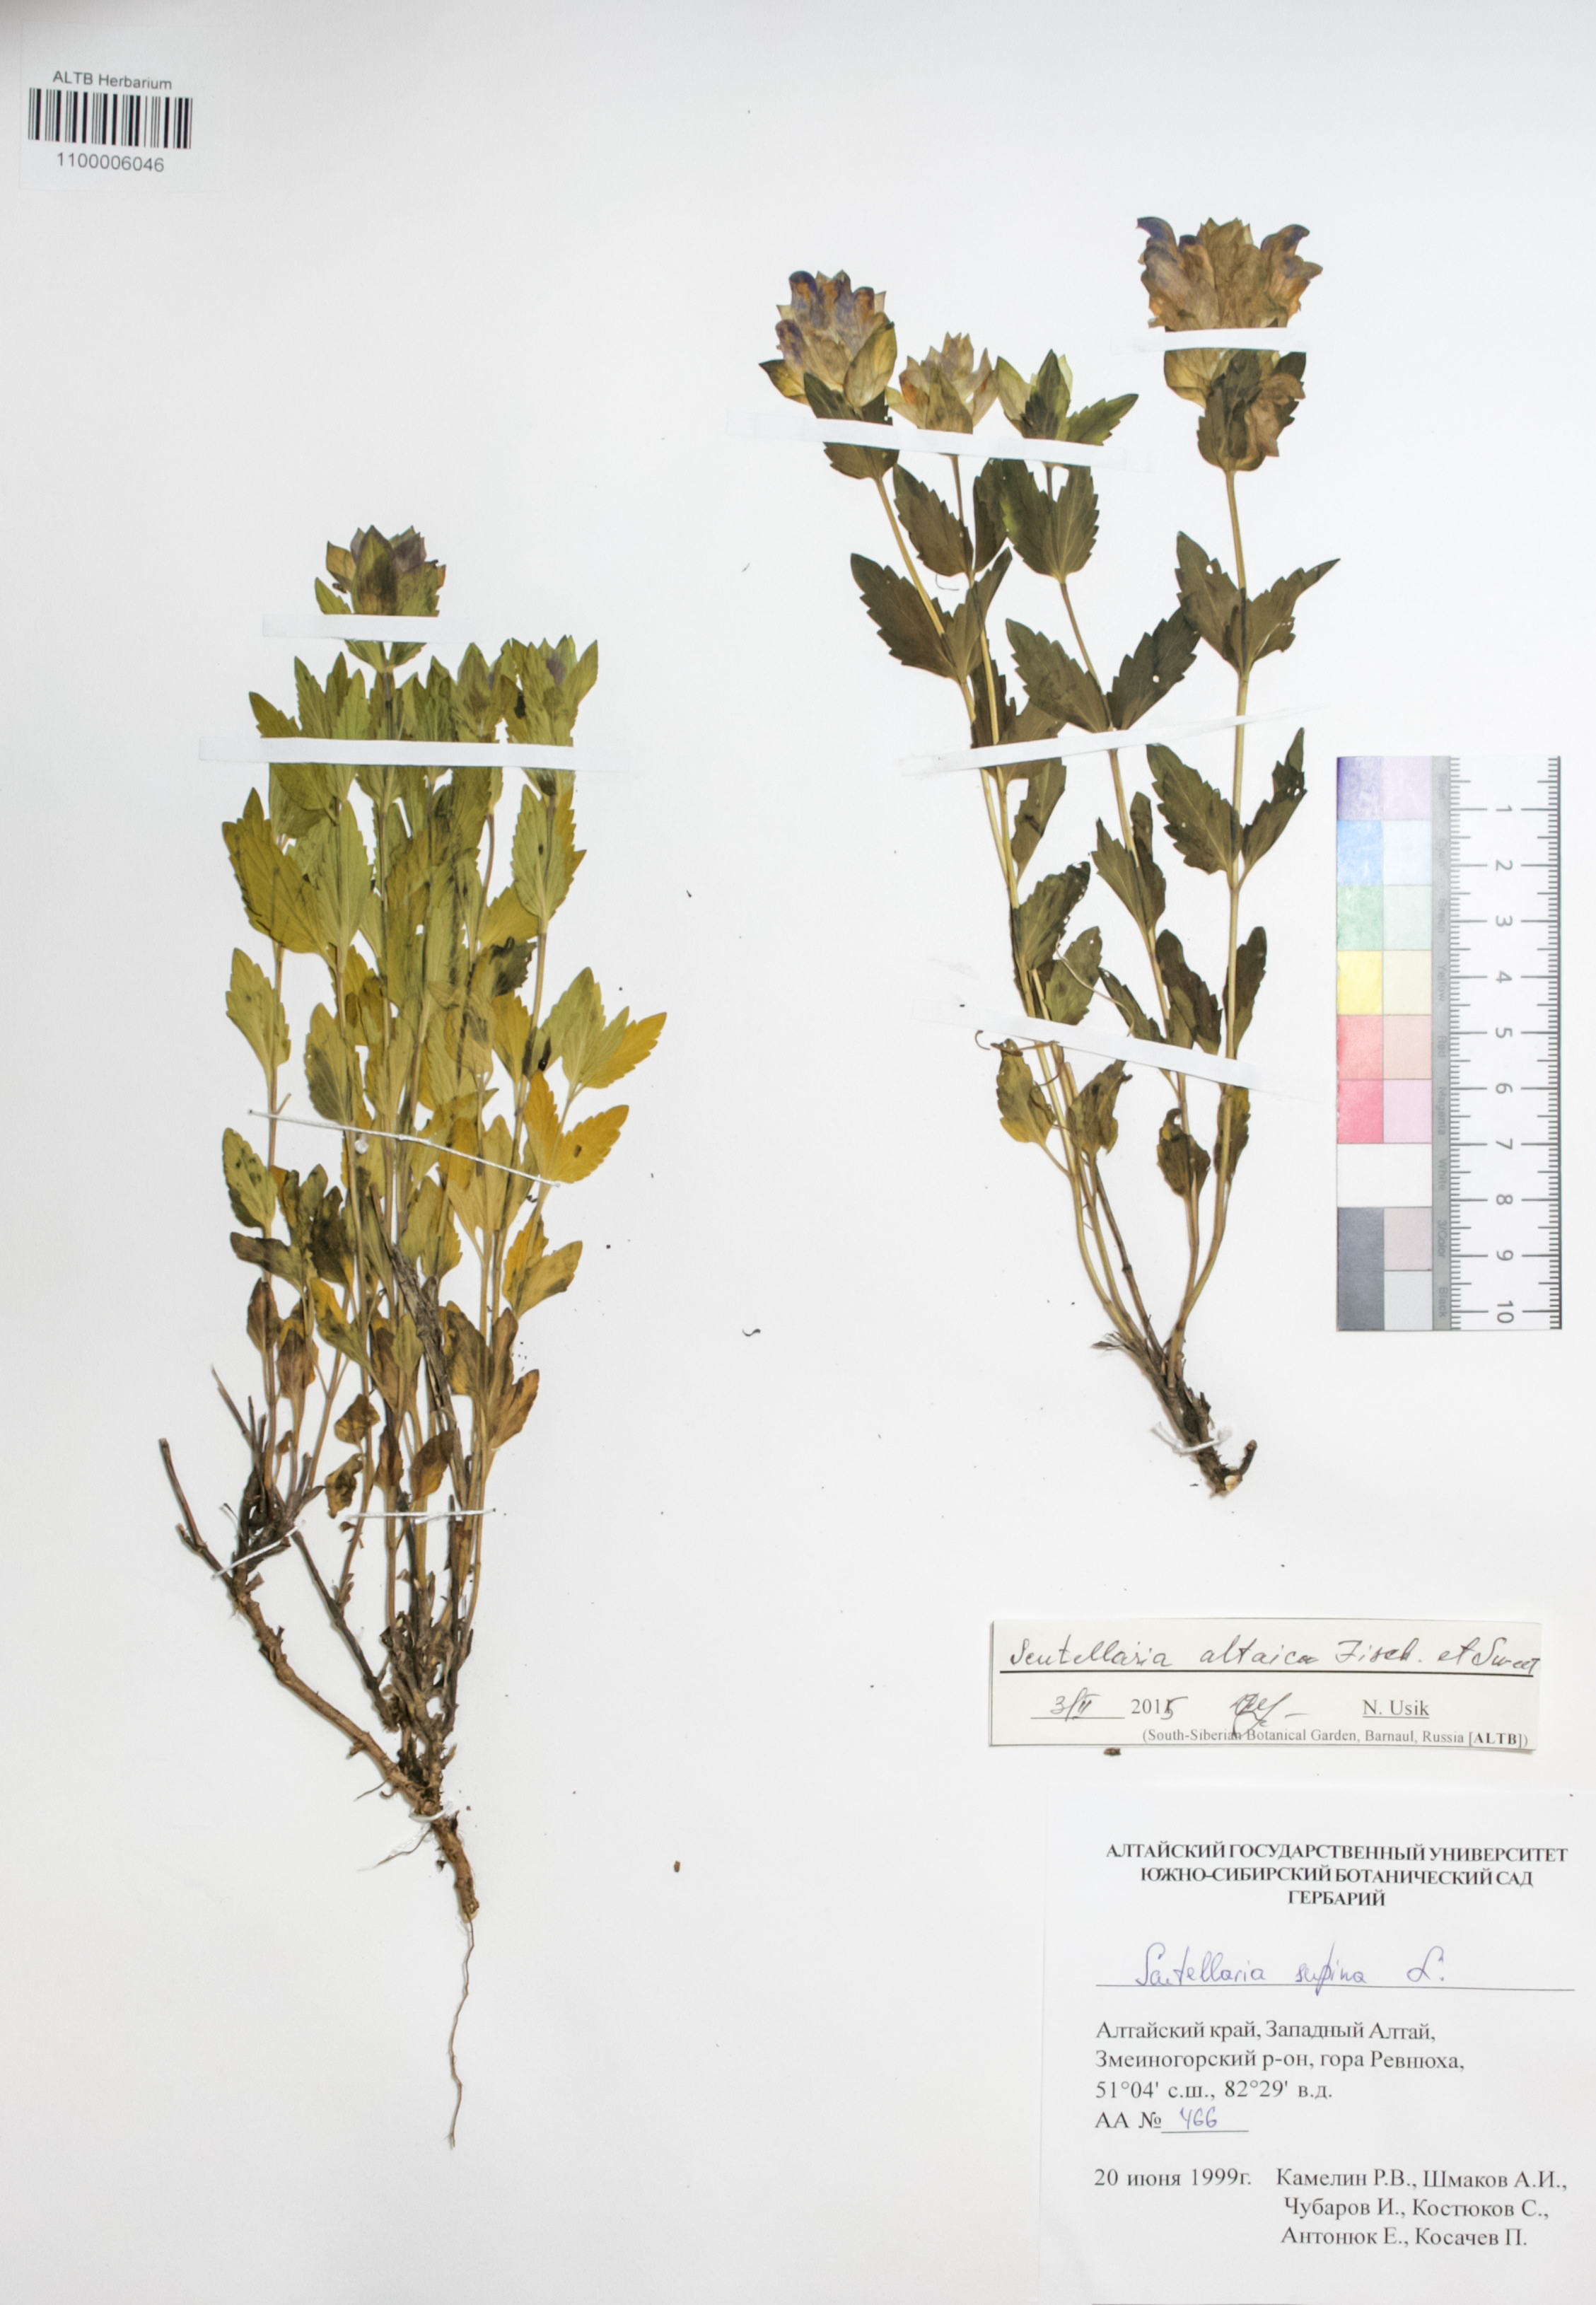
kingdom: Plantae
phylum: Tracheophyta
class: Magnoliopsida
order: Lamiales
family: Lamiaceae
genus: Scutellaria
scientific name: Scutellaria supina
